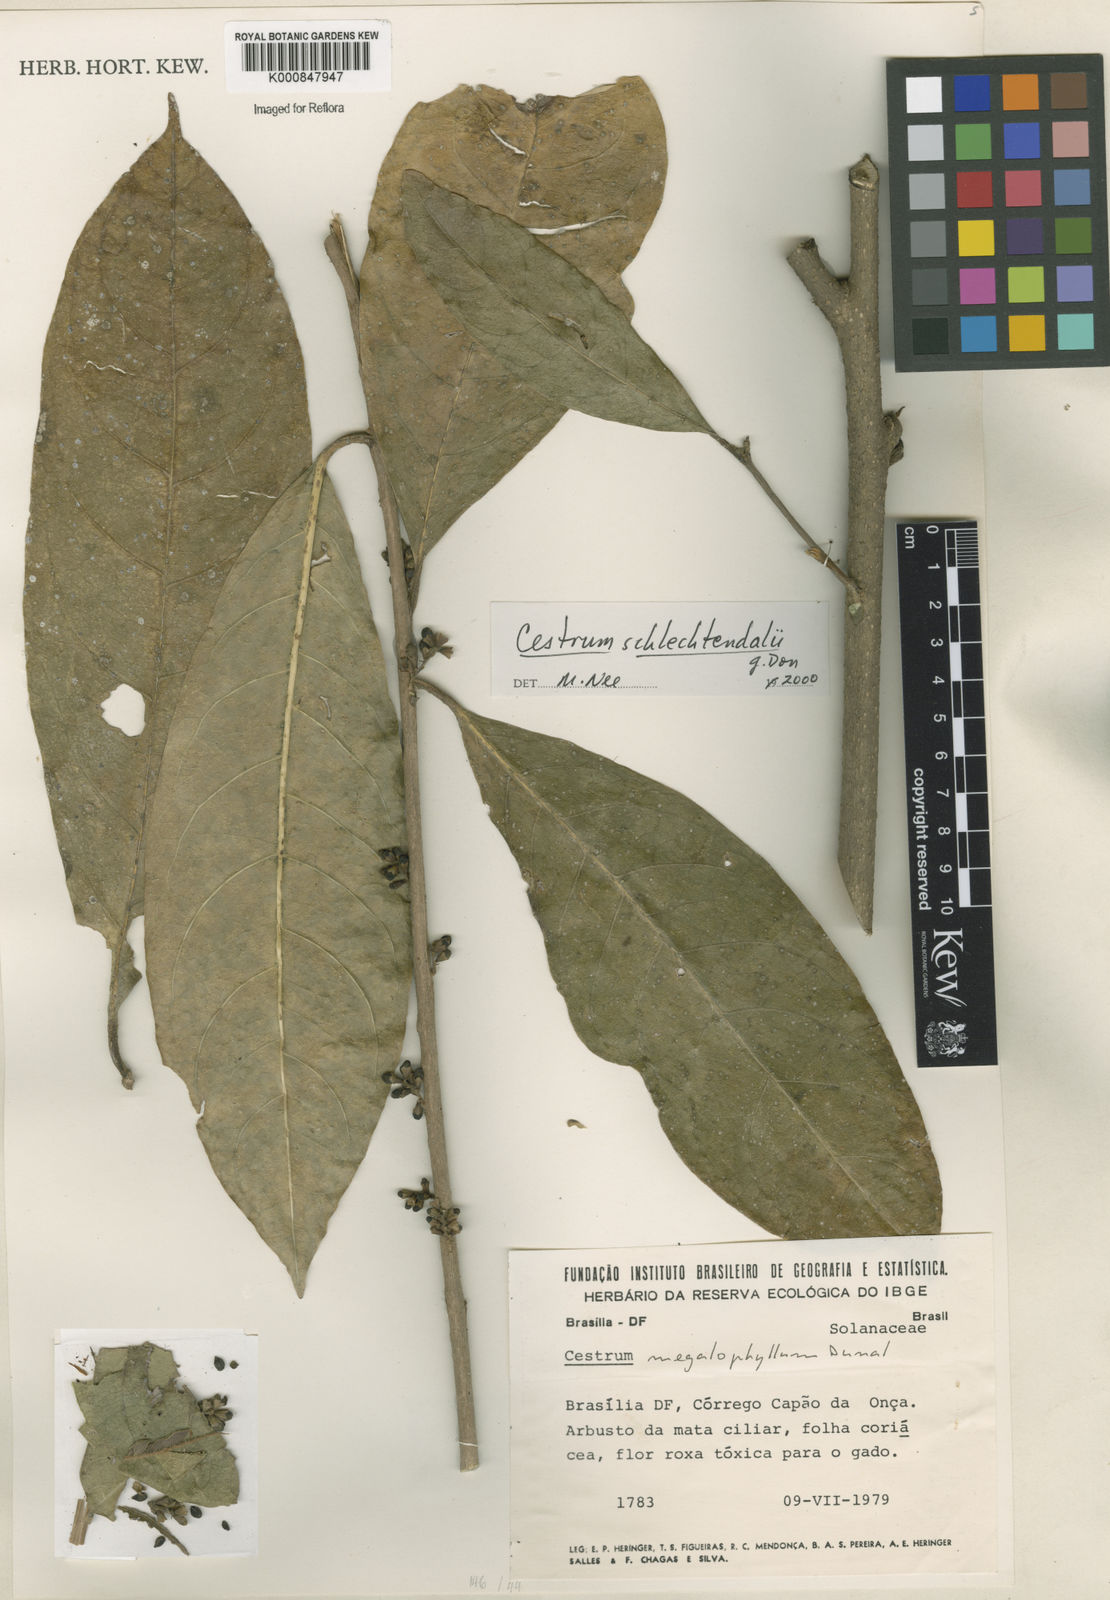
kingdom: Plantae
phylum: Tracheophyta
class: Magnoliopsida
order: Solanales
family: Solanaceae
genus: Cestrum
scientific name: Cestrum schlechtendalii
